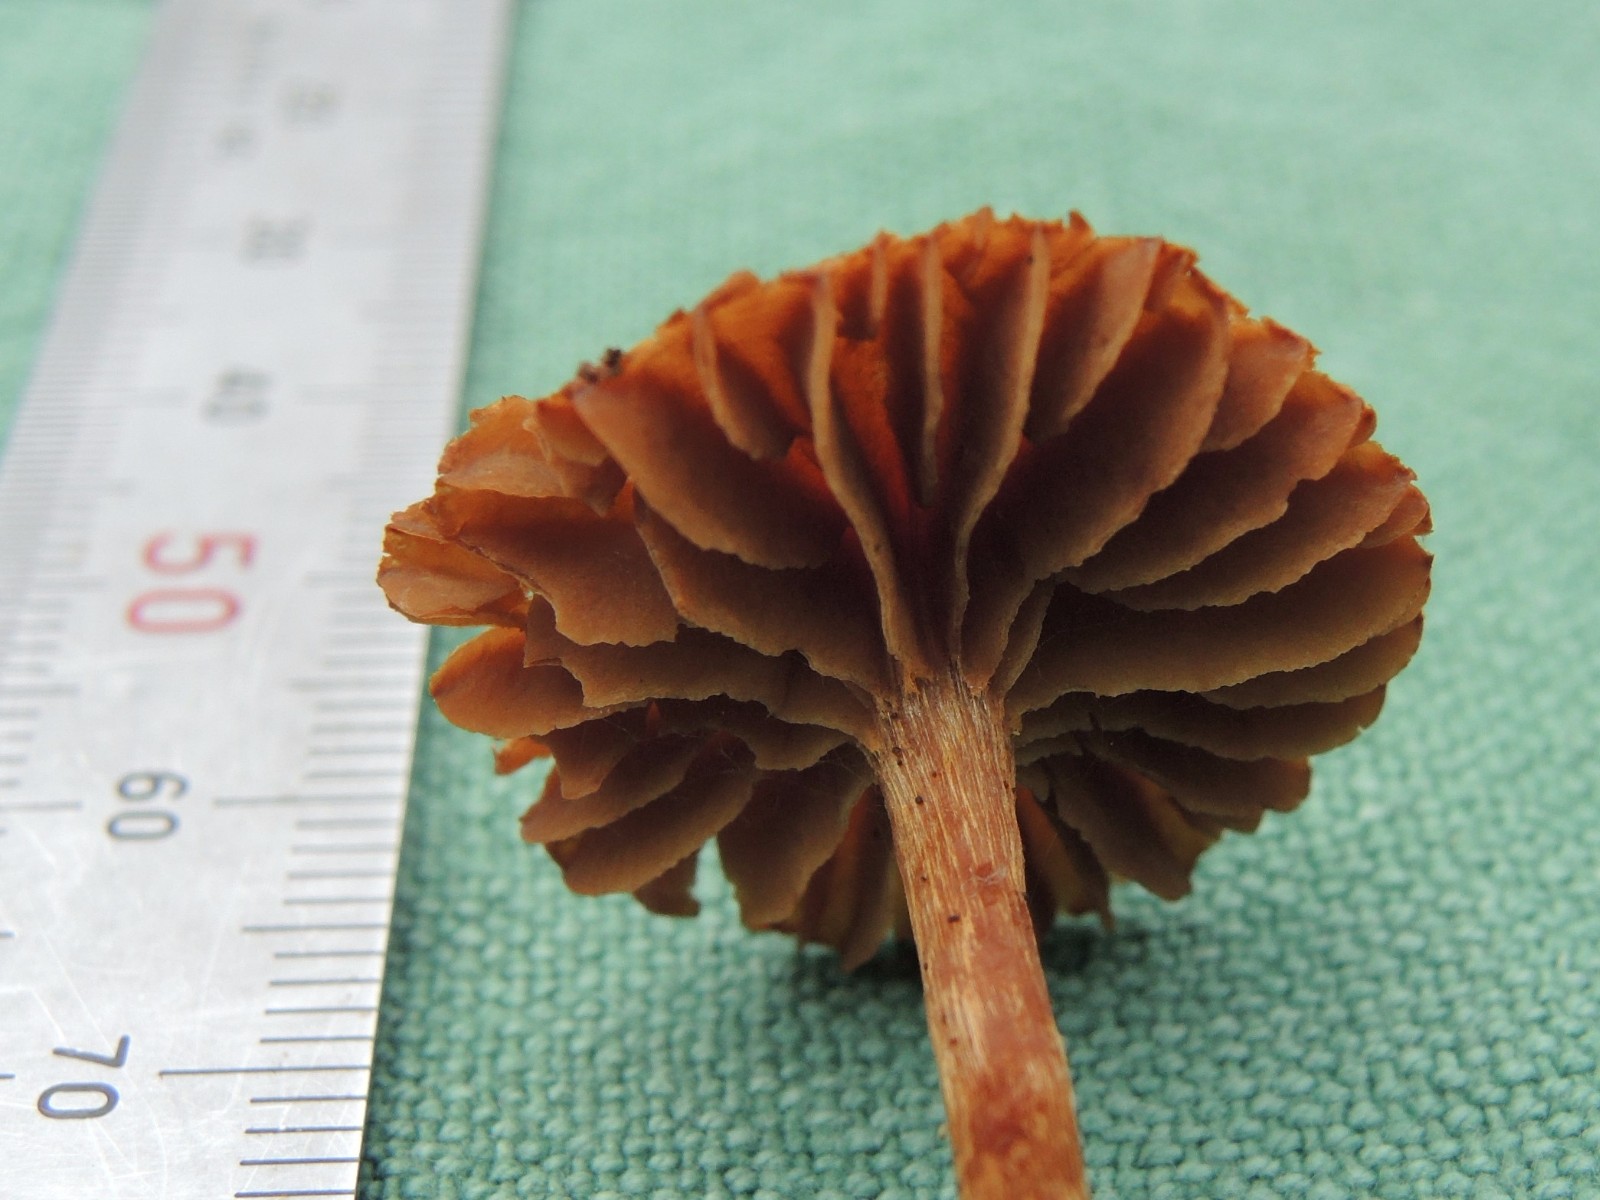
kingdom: Fungi
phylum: Basidiomycota
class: Agaricomycetes
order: Agaricales
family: Cortinariaceae
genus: Cortinarius
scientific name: Cortinarius helvelloides
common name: fjernbladet slørhat
